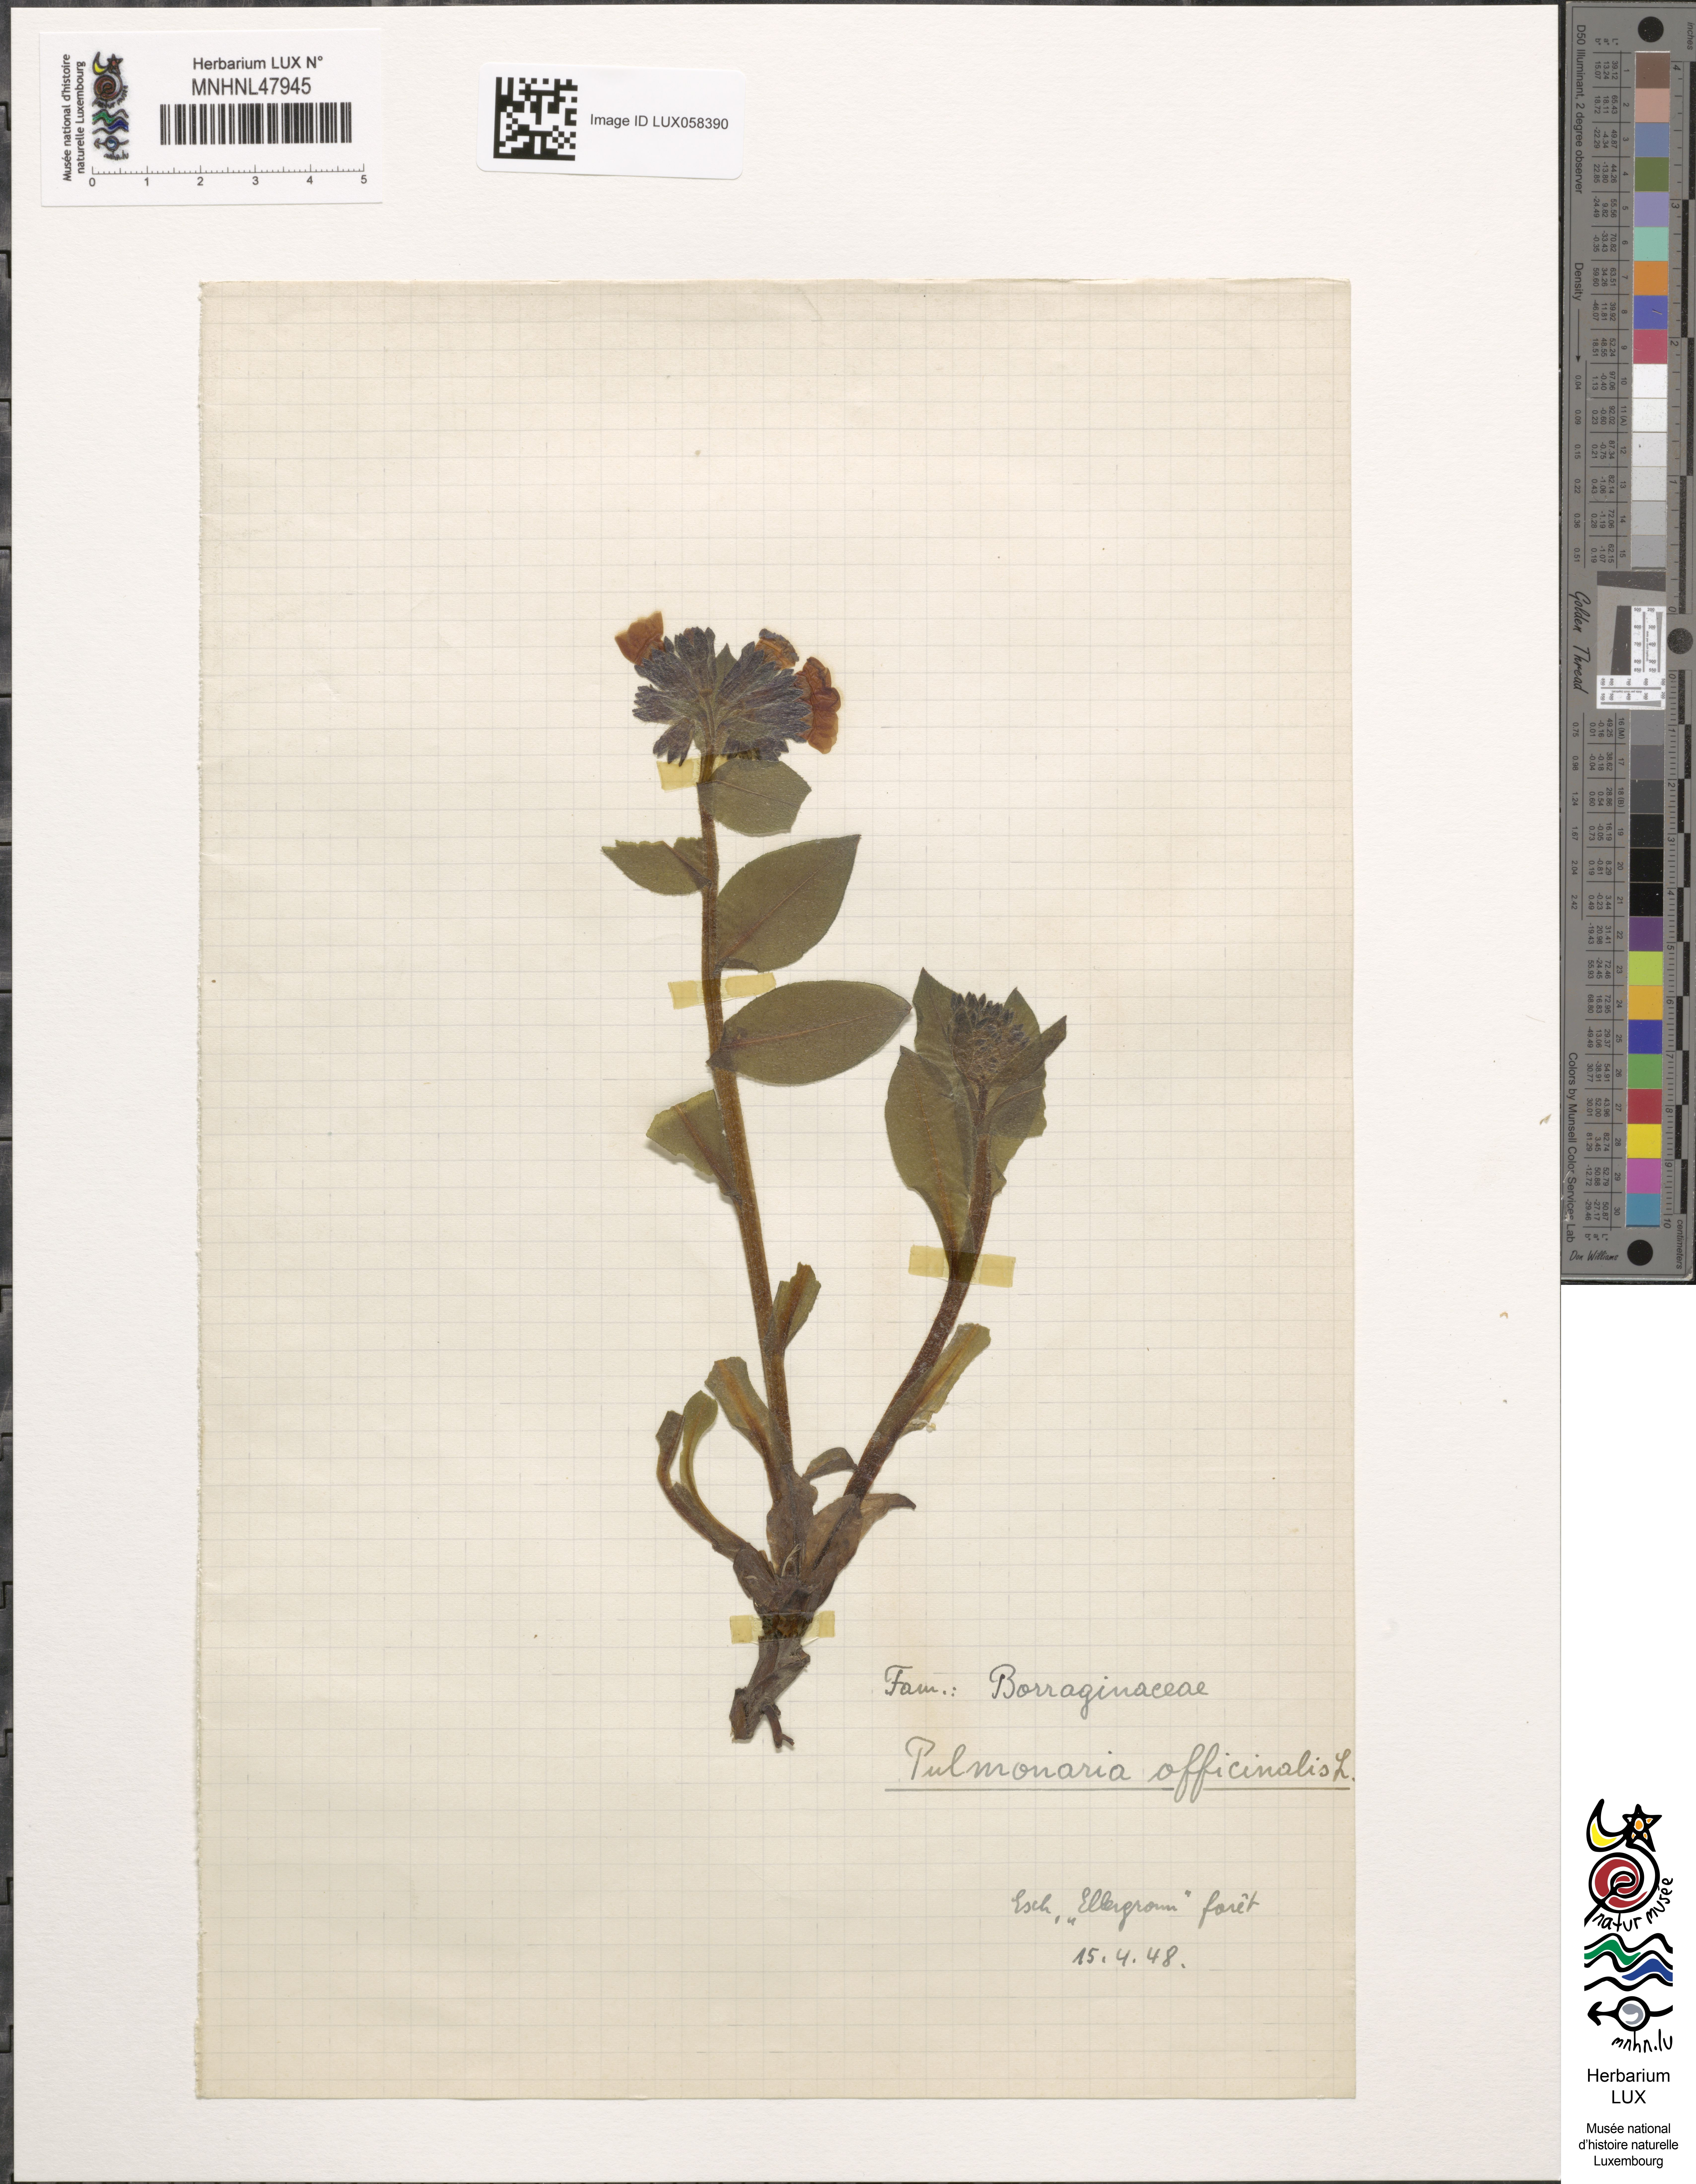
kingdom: Plantae
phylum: Tracheophyta
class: Magnoliopsida
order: Boraginales
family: Boraginaceae
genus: Pulmonaria
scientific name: Pulmonaria officinalis
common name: Lungwort
